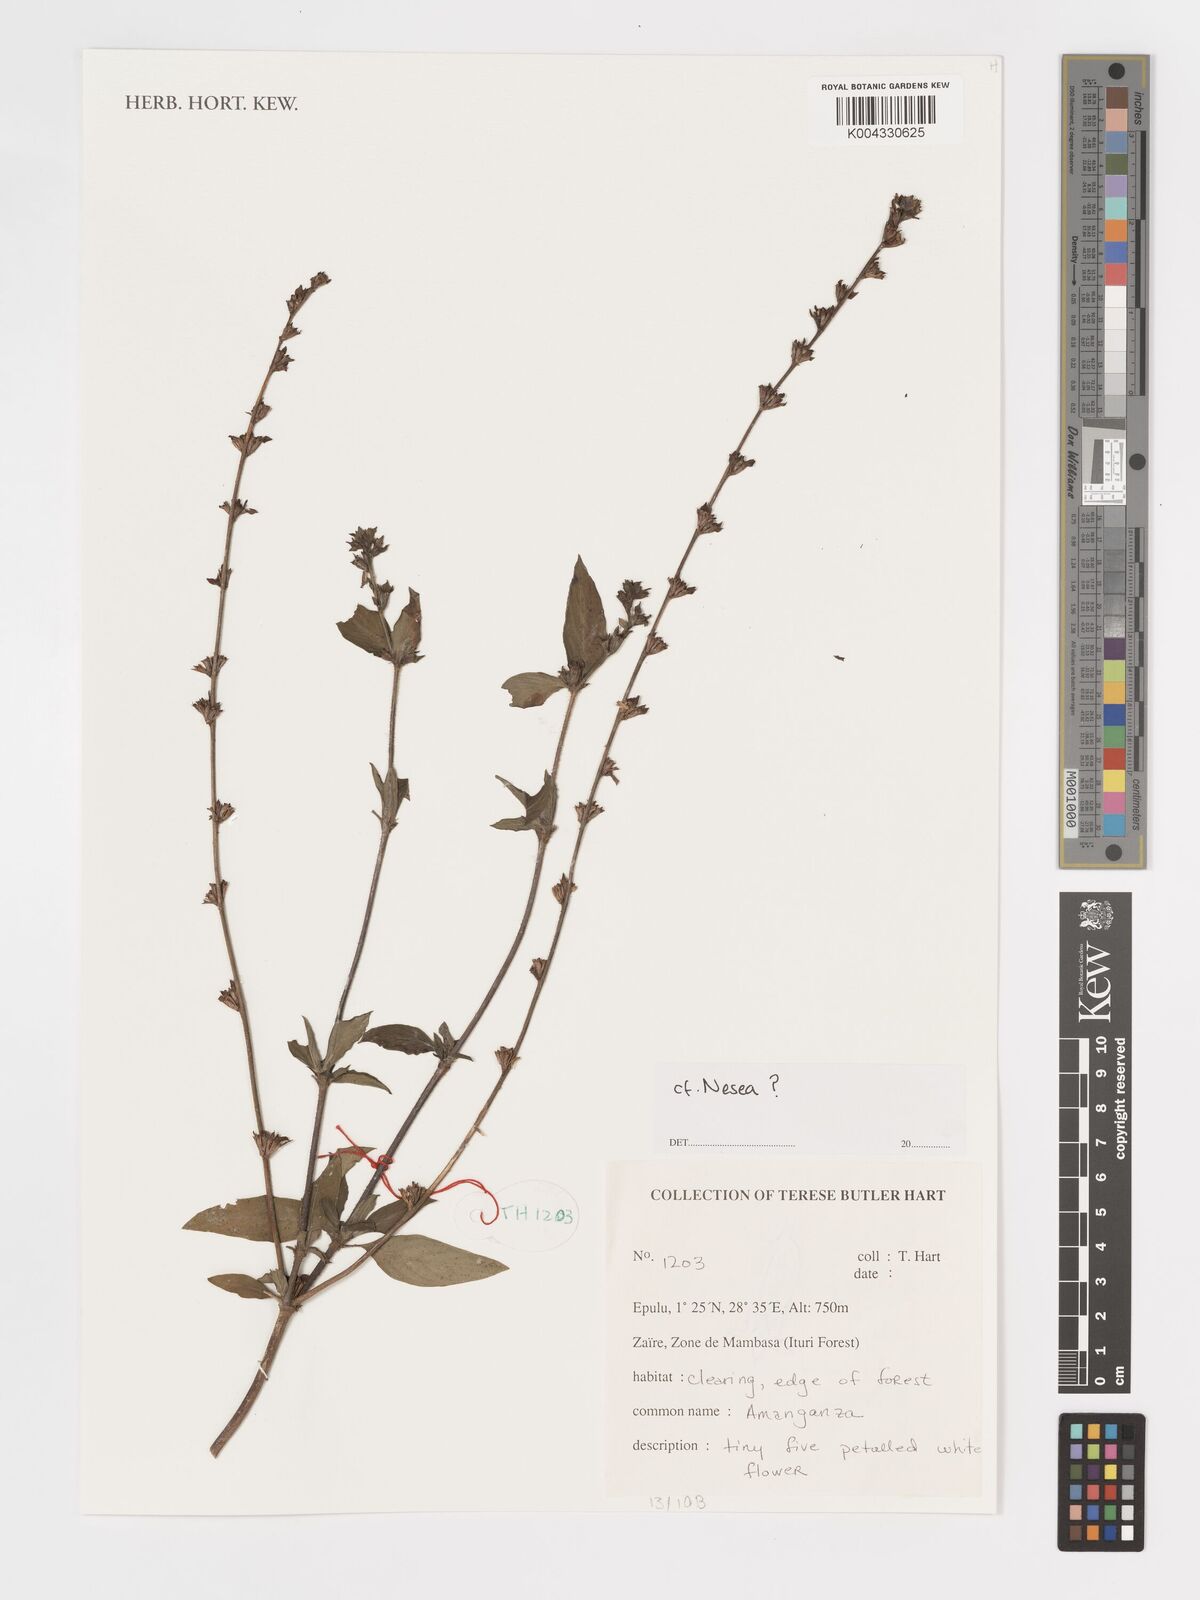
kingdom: Plantae
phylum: Tracheophyta
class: Magnoliopsida
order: Myrtales
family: Lythraceae
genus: Nesaea
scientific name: Nesaea
